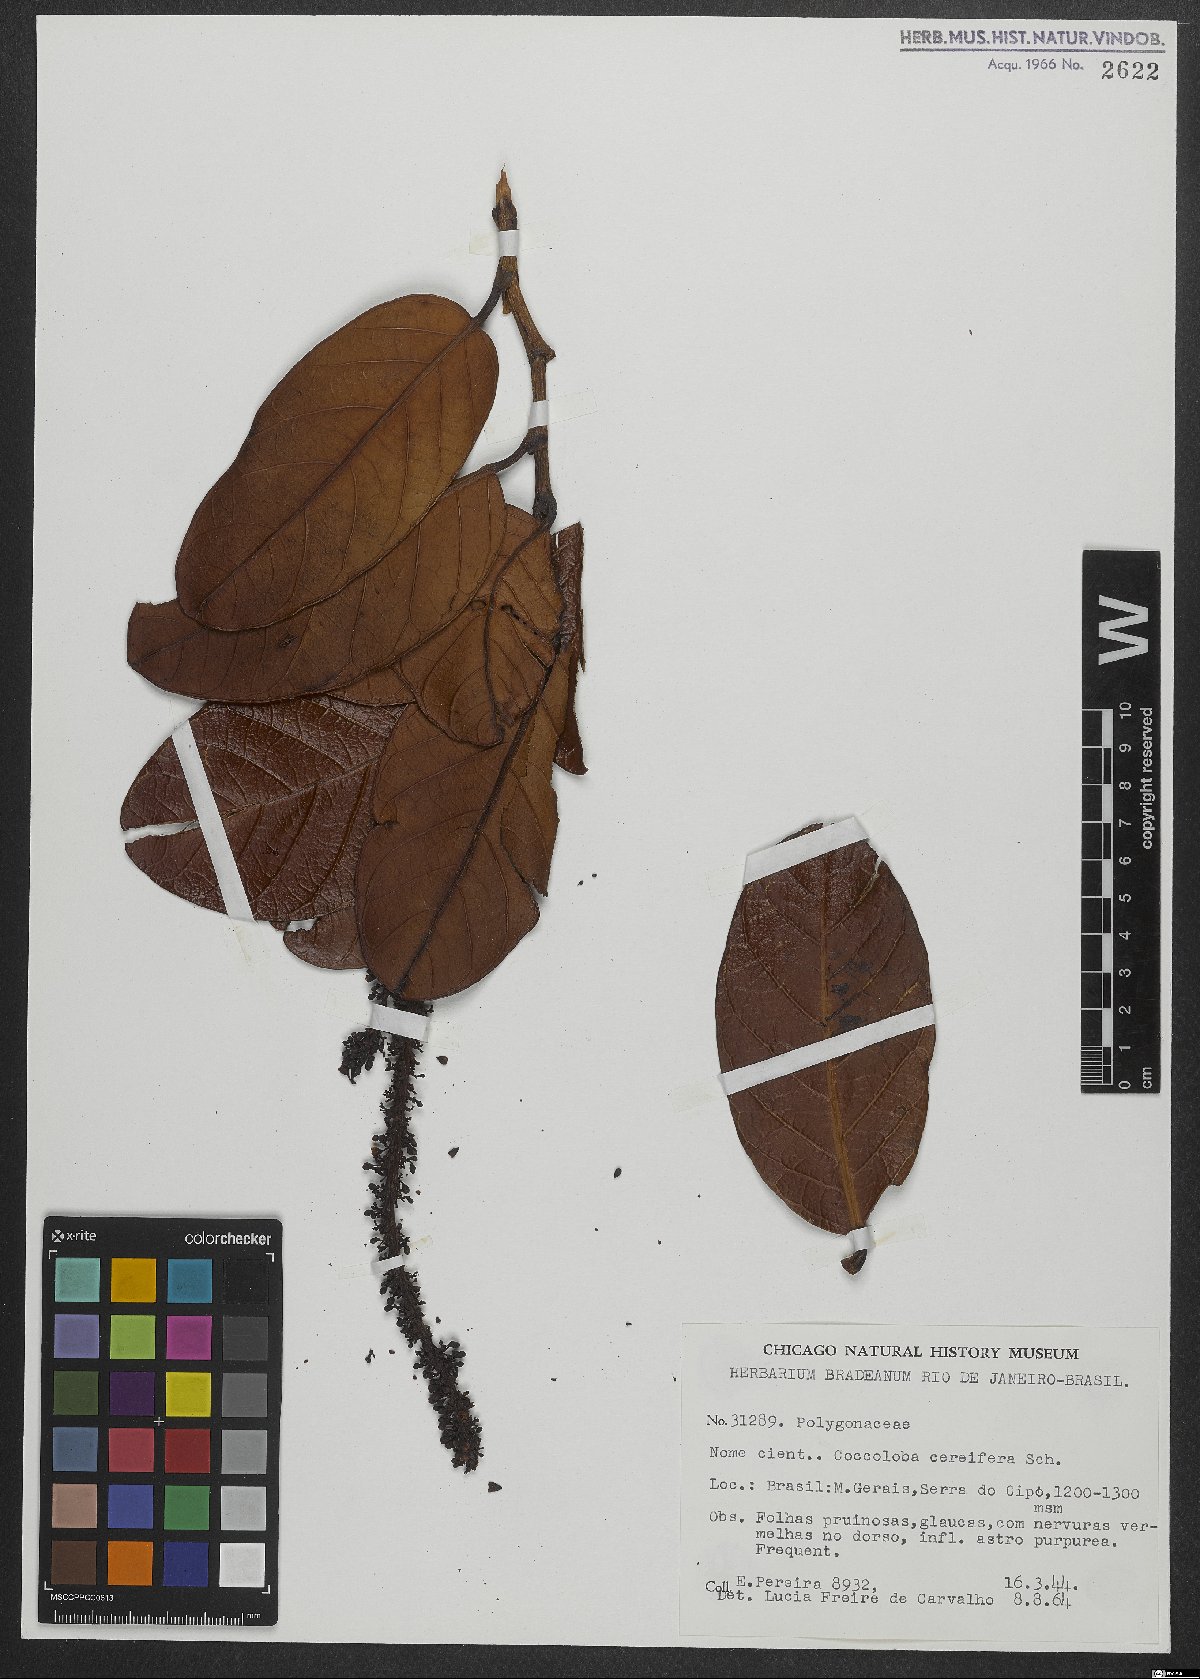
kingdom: Plantae
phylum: Tracheophyta
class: Magnoliopsida
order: Caryophyllales
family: Polygonaceae
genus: Coccoloba
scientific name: Coccoloba cereifera
